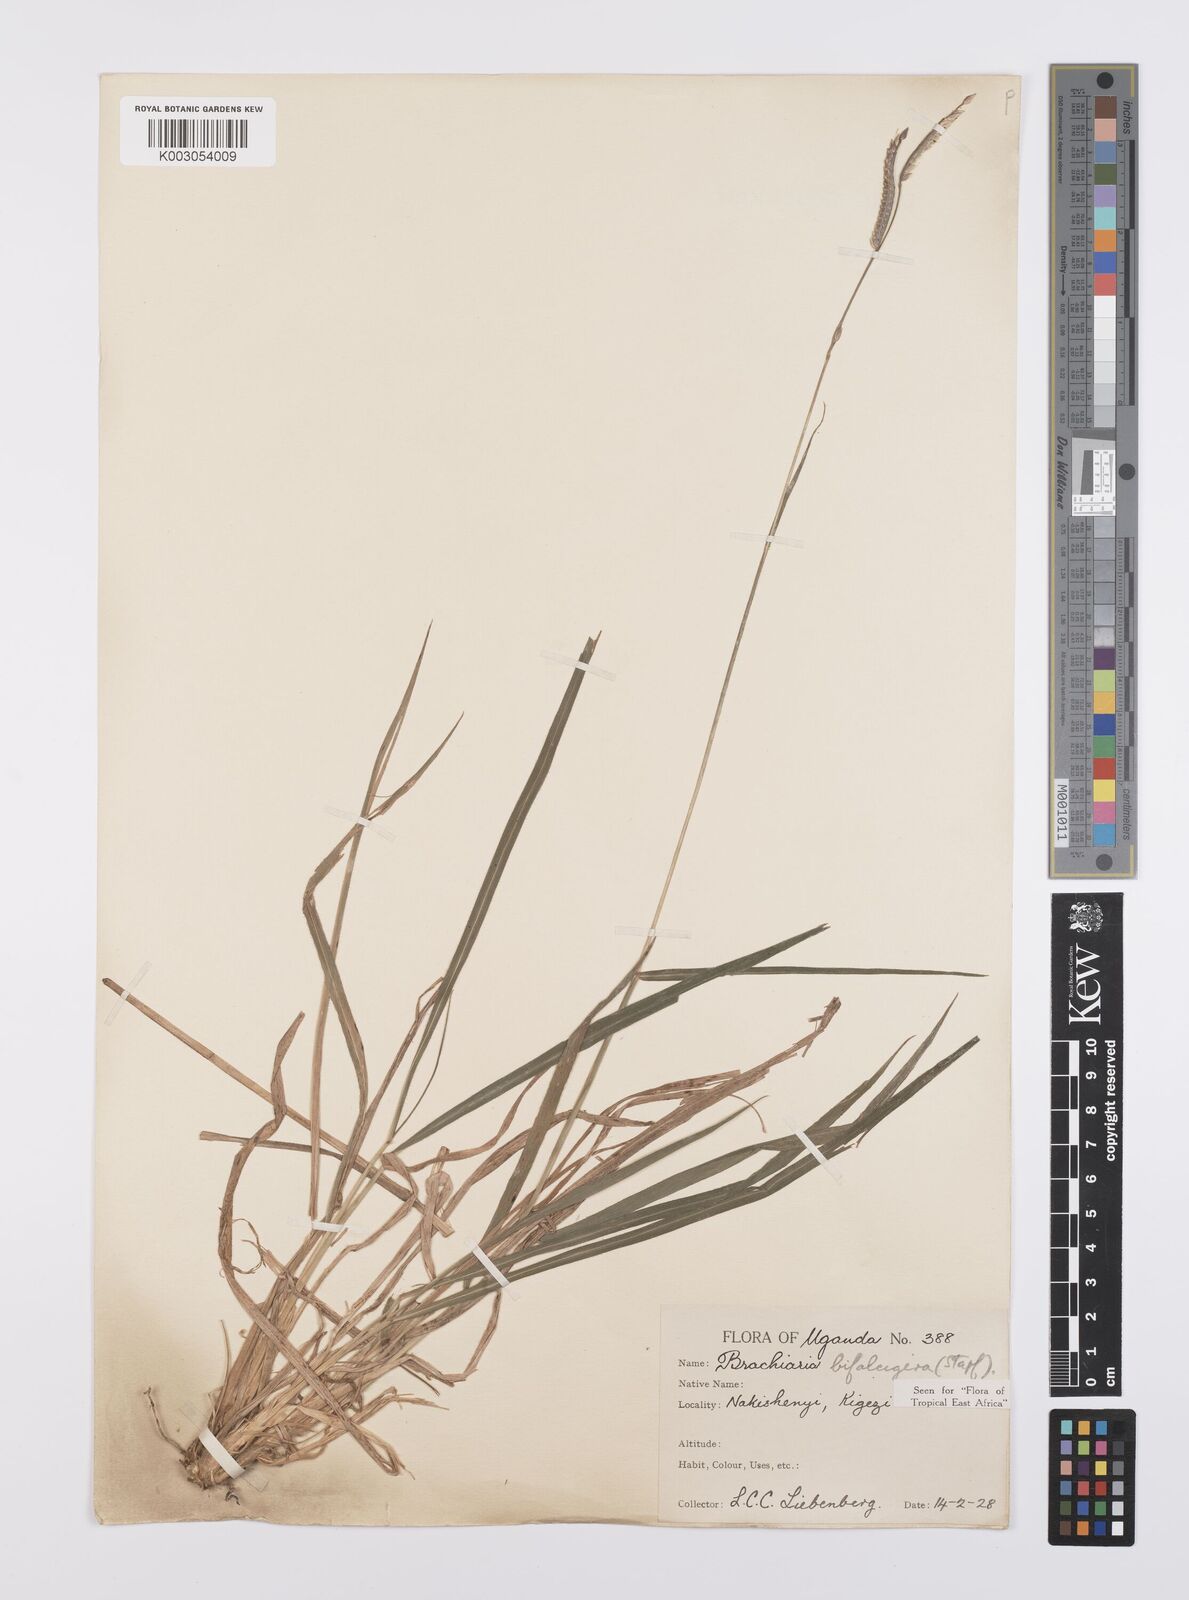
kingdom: Plantae
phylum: Tracheophyta
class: Liliopsida
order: Poales
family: Poaceae
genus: Urochloa
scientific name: Urochloa platynota
